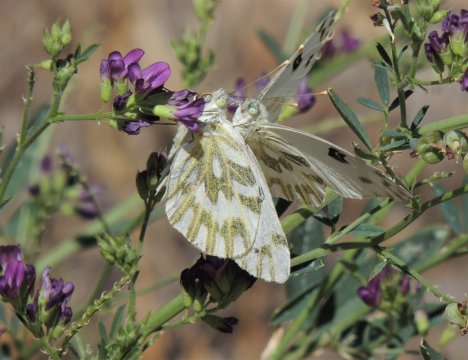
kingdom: Animalia
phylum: Arthropoda
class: Insecta
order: Lepidoptera
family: Pieridae
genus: Pontia
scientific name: Pontia beckerii
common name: Becker's White
